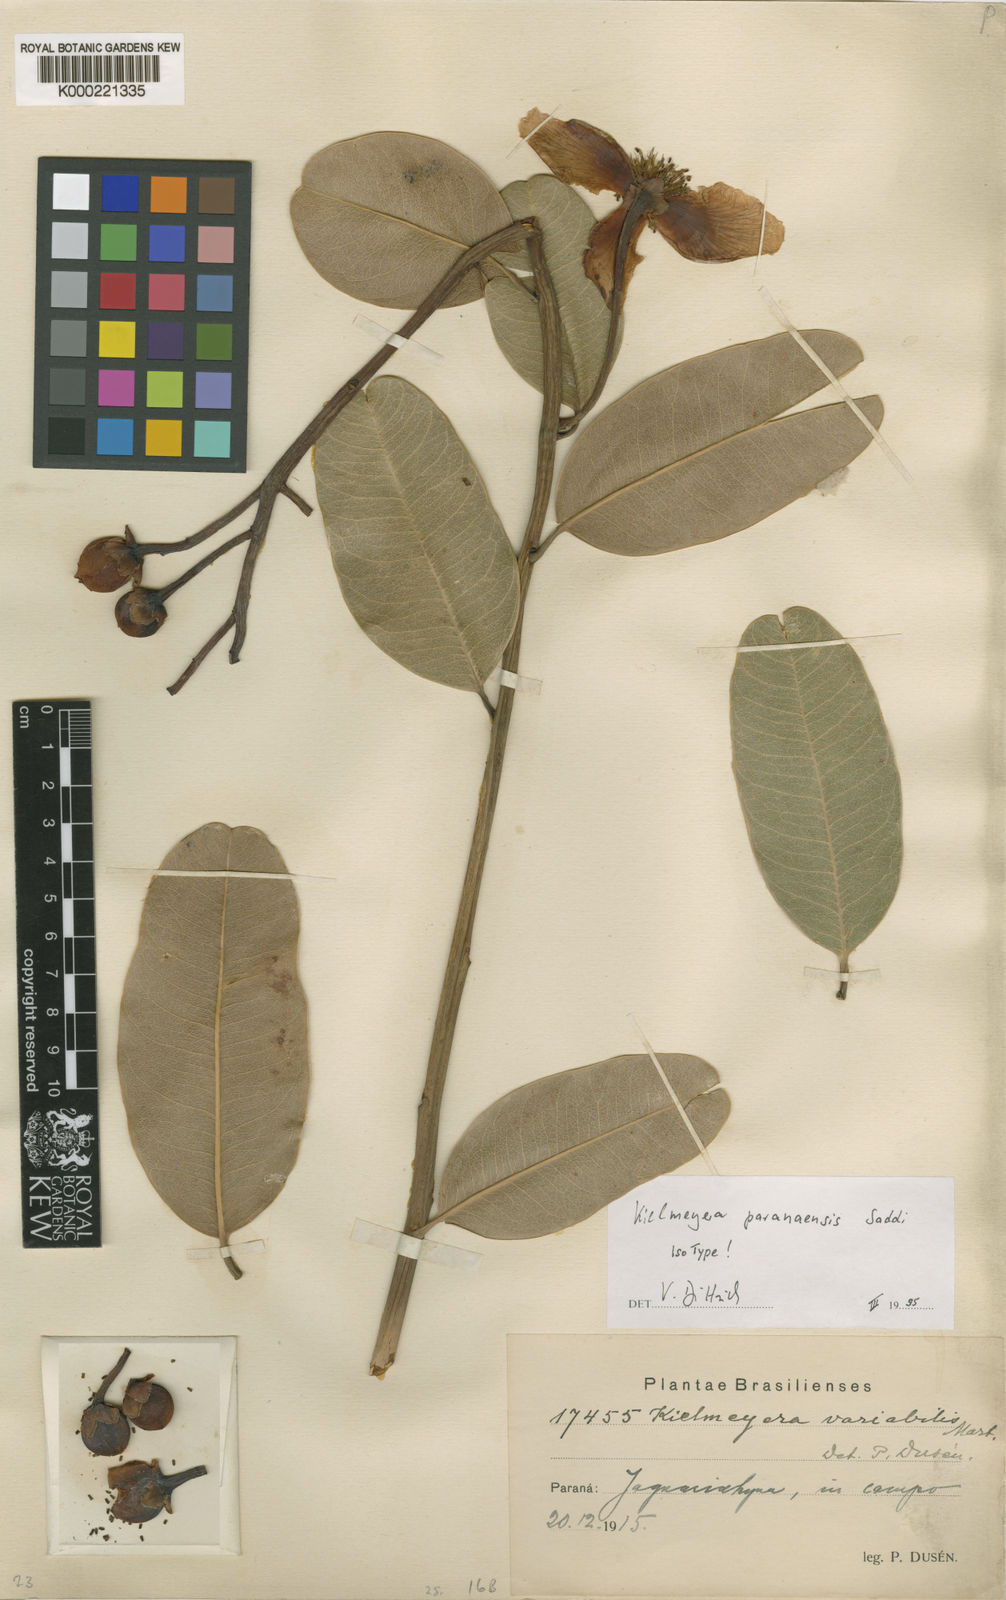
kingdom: Plantae
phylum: Tracheophyta
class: Magnoliopsida
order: Malpighiales
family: Calophyllaceae
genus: Kielmeyera
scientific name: Kielmeyera variabilis
